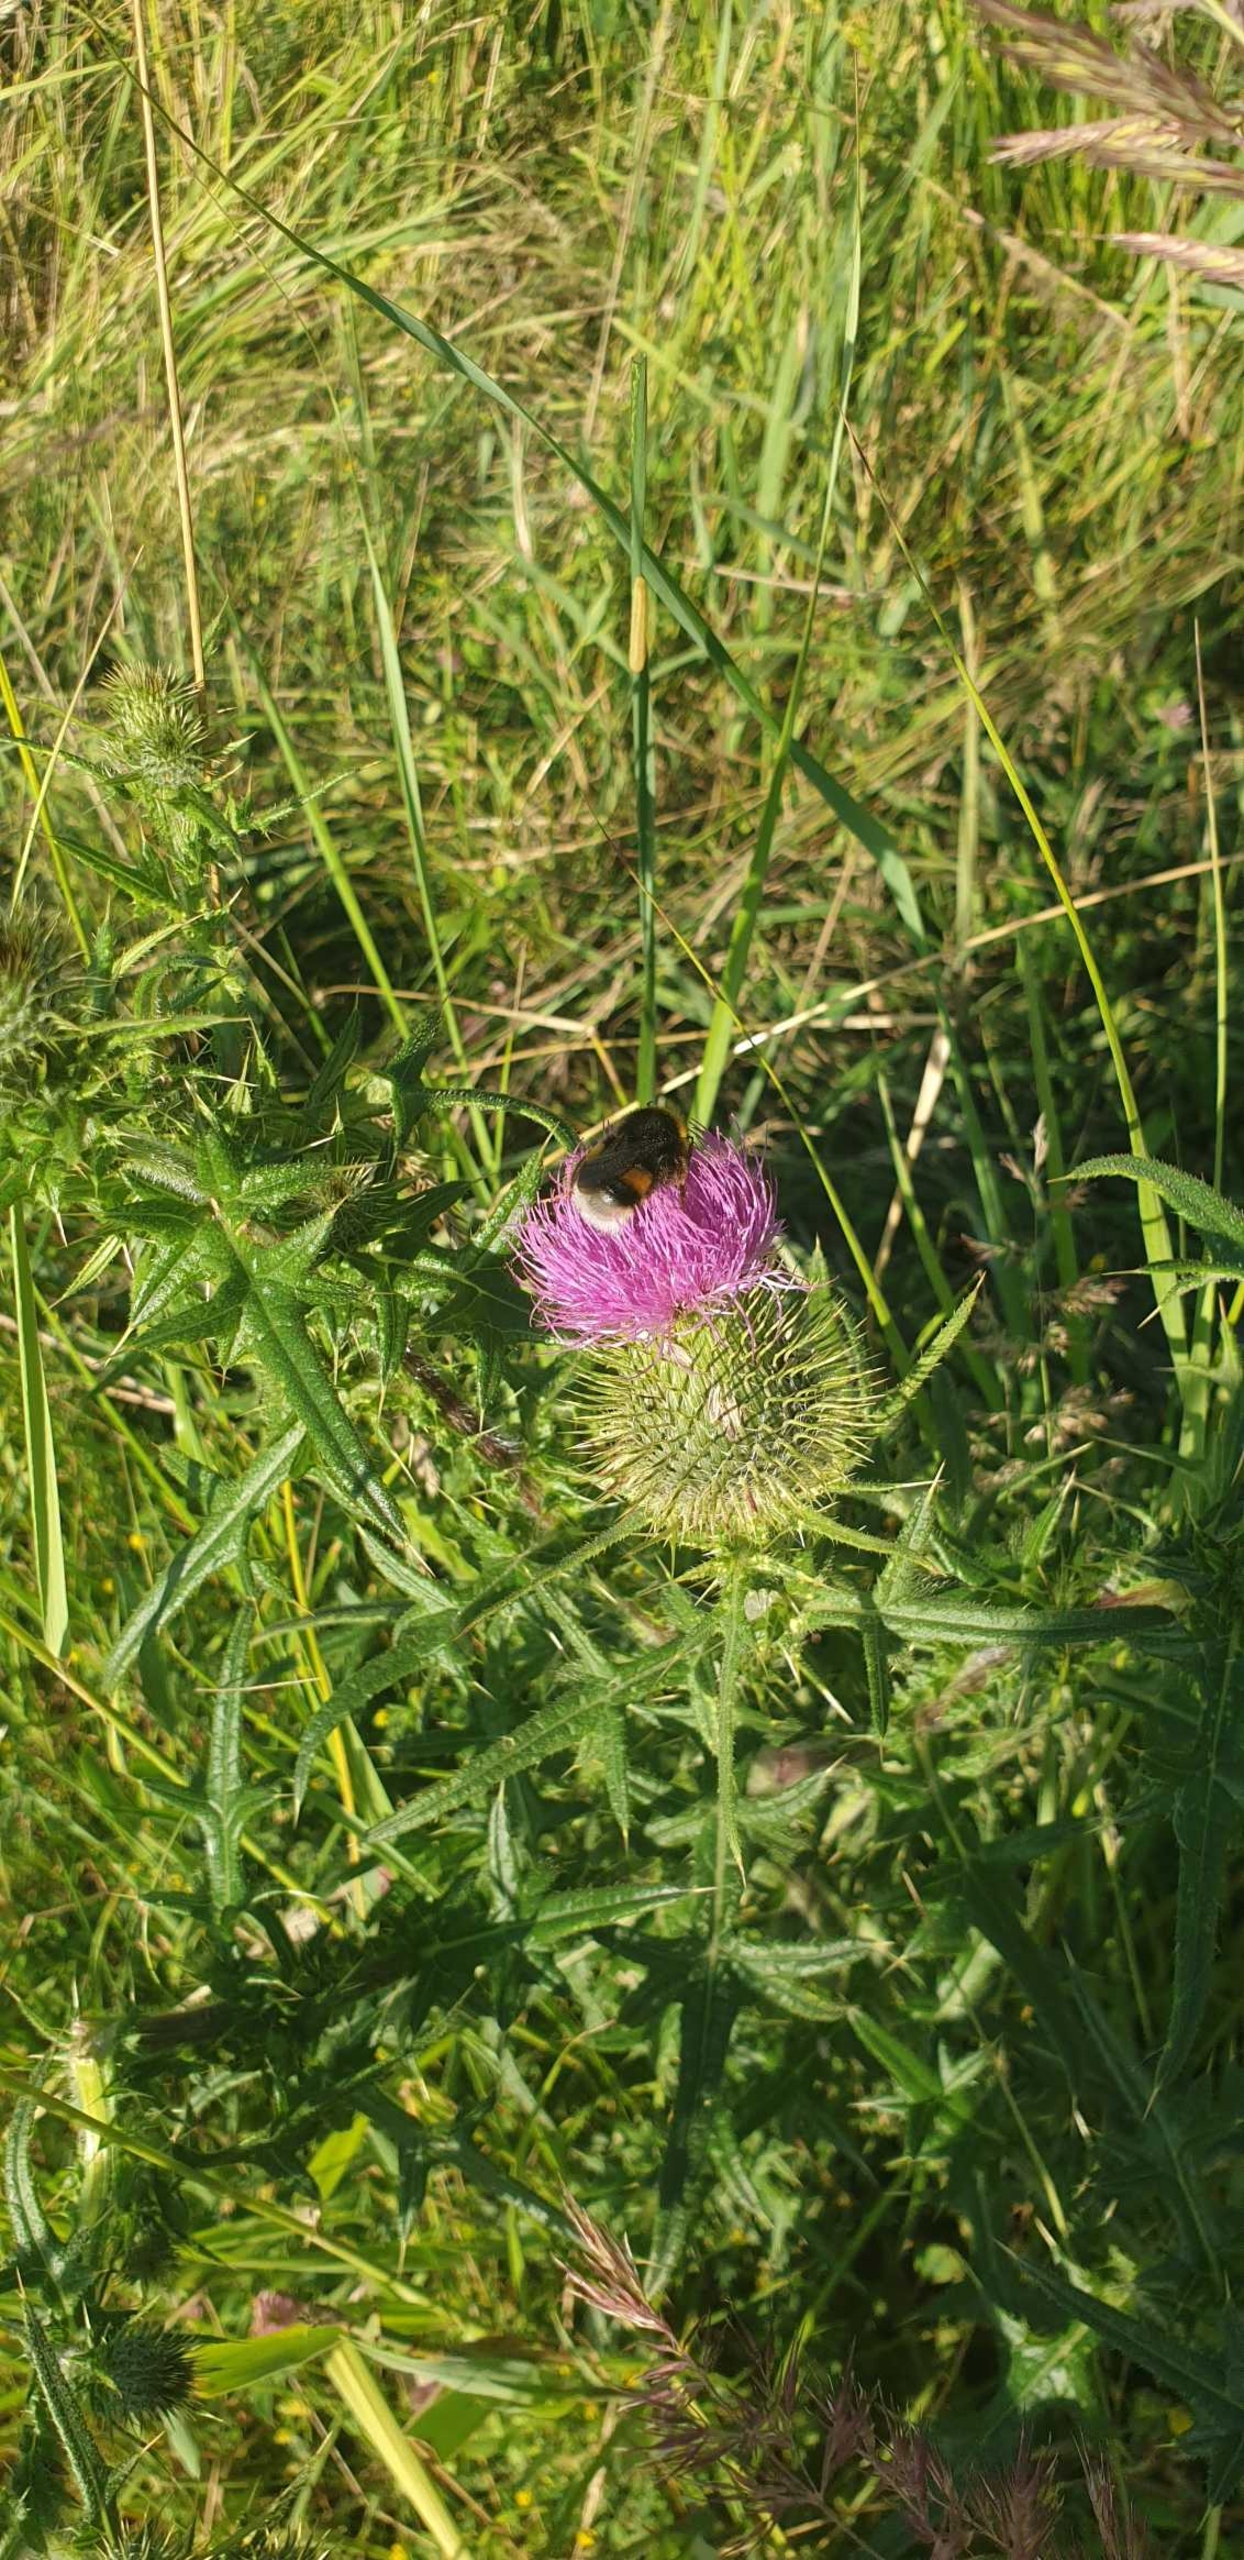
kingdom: Plantae
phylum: Tracheophyta
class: Magnoliopsida
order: Asterales
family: Asteraceae
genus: Cirsium
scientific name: Cirsium vulgare
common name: Horse-tidsel
